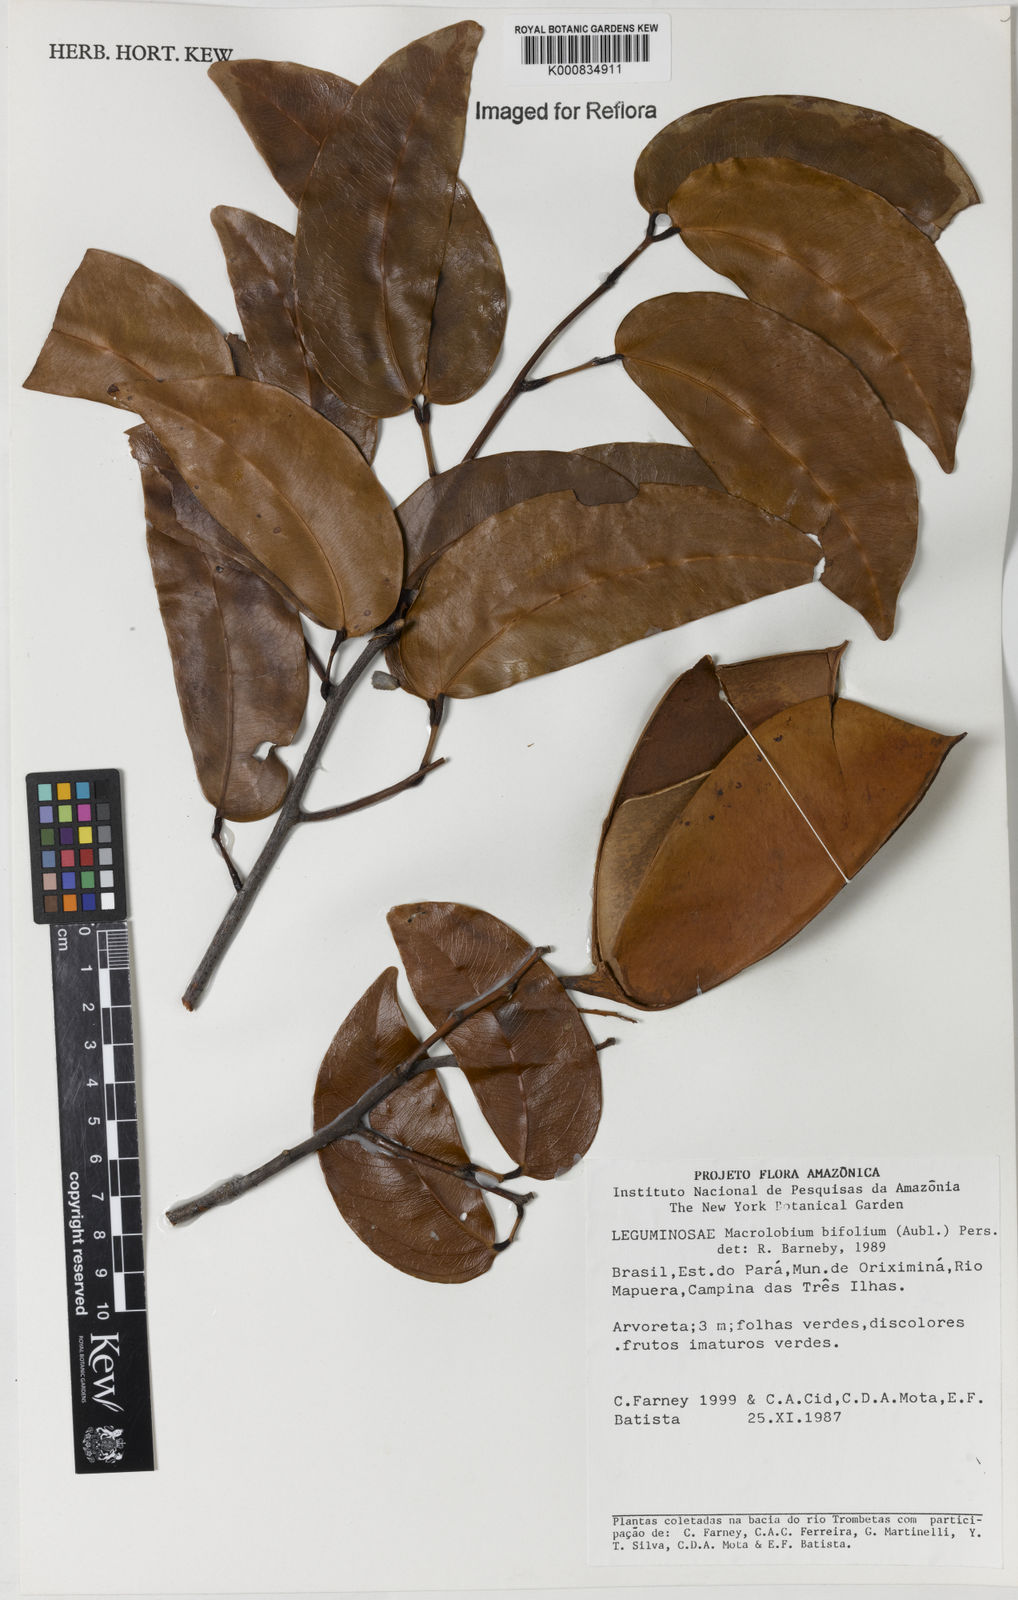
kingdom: Plantae
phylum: Tracheophyta
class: Magnoliopsida
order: Fabales
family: Fabaceae
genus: Macrolobium
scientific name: Macrolobium bifolium
